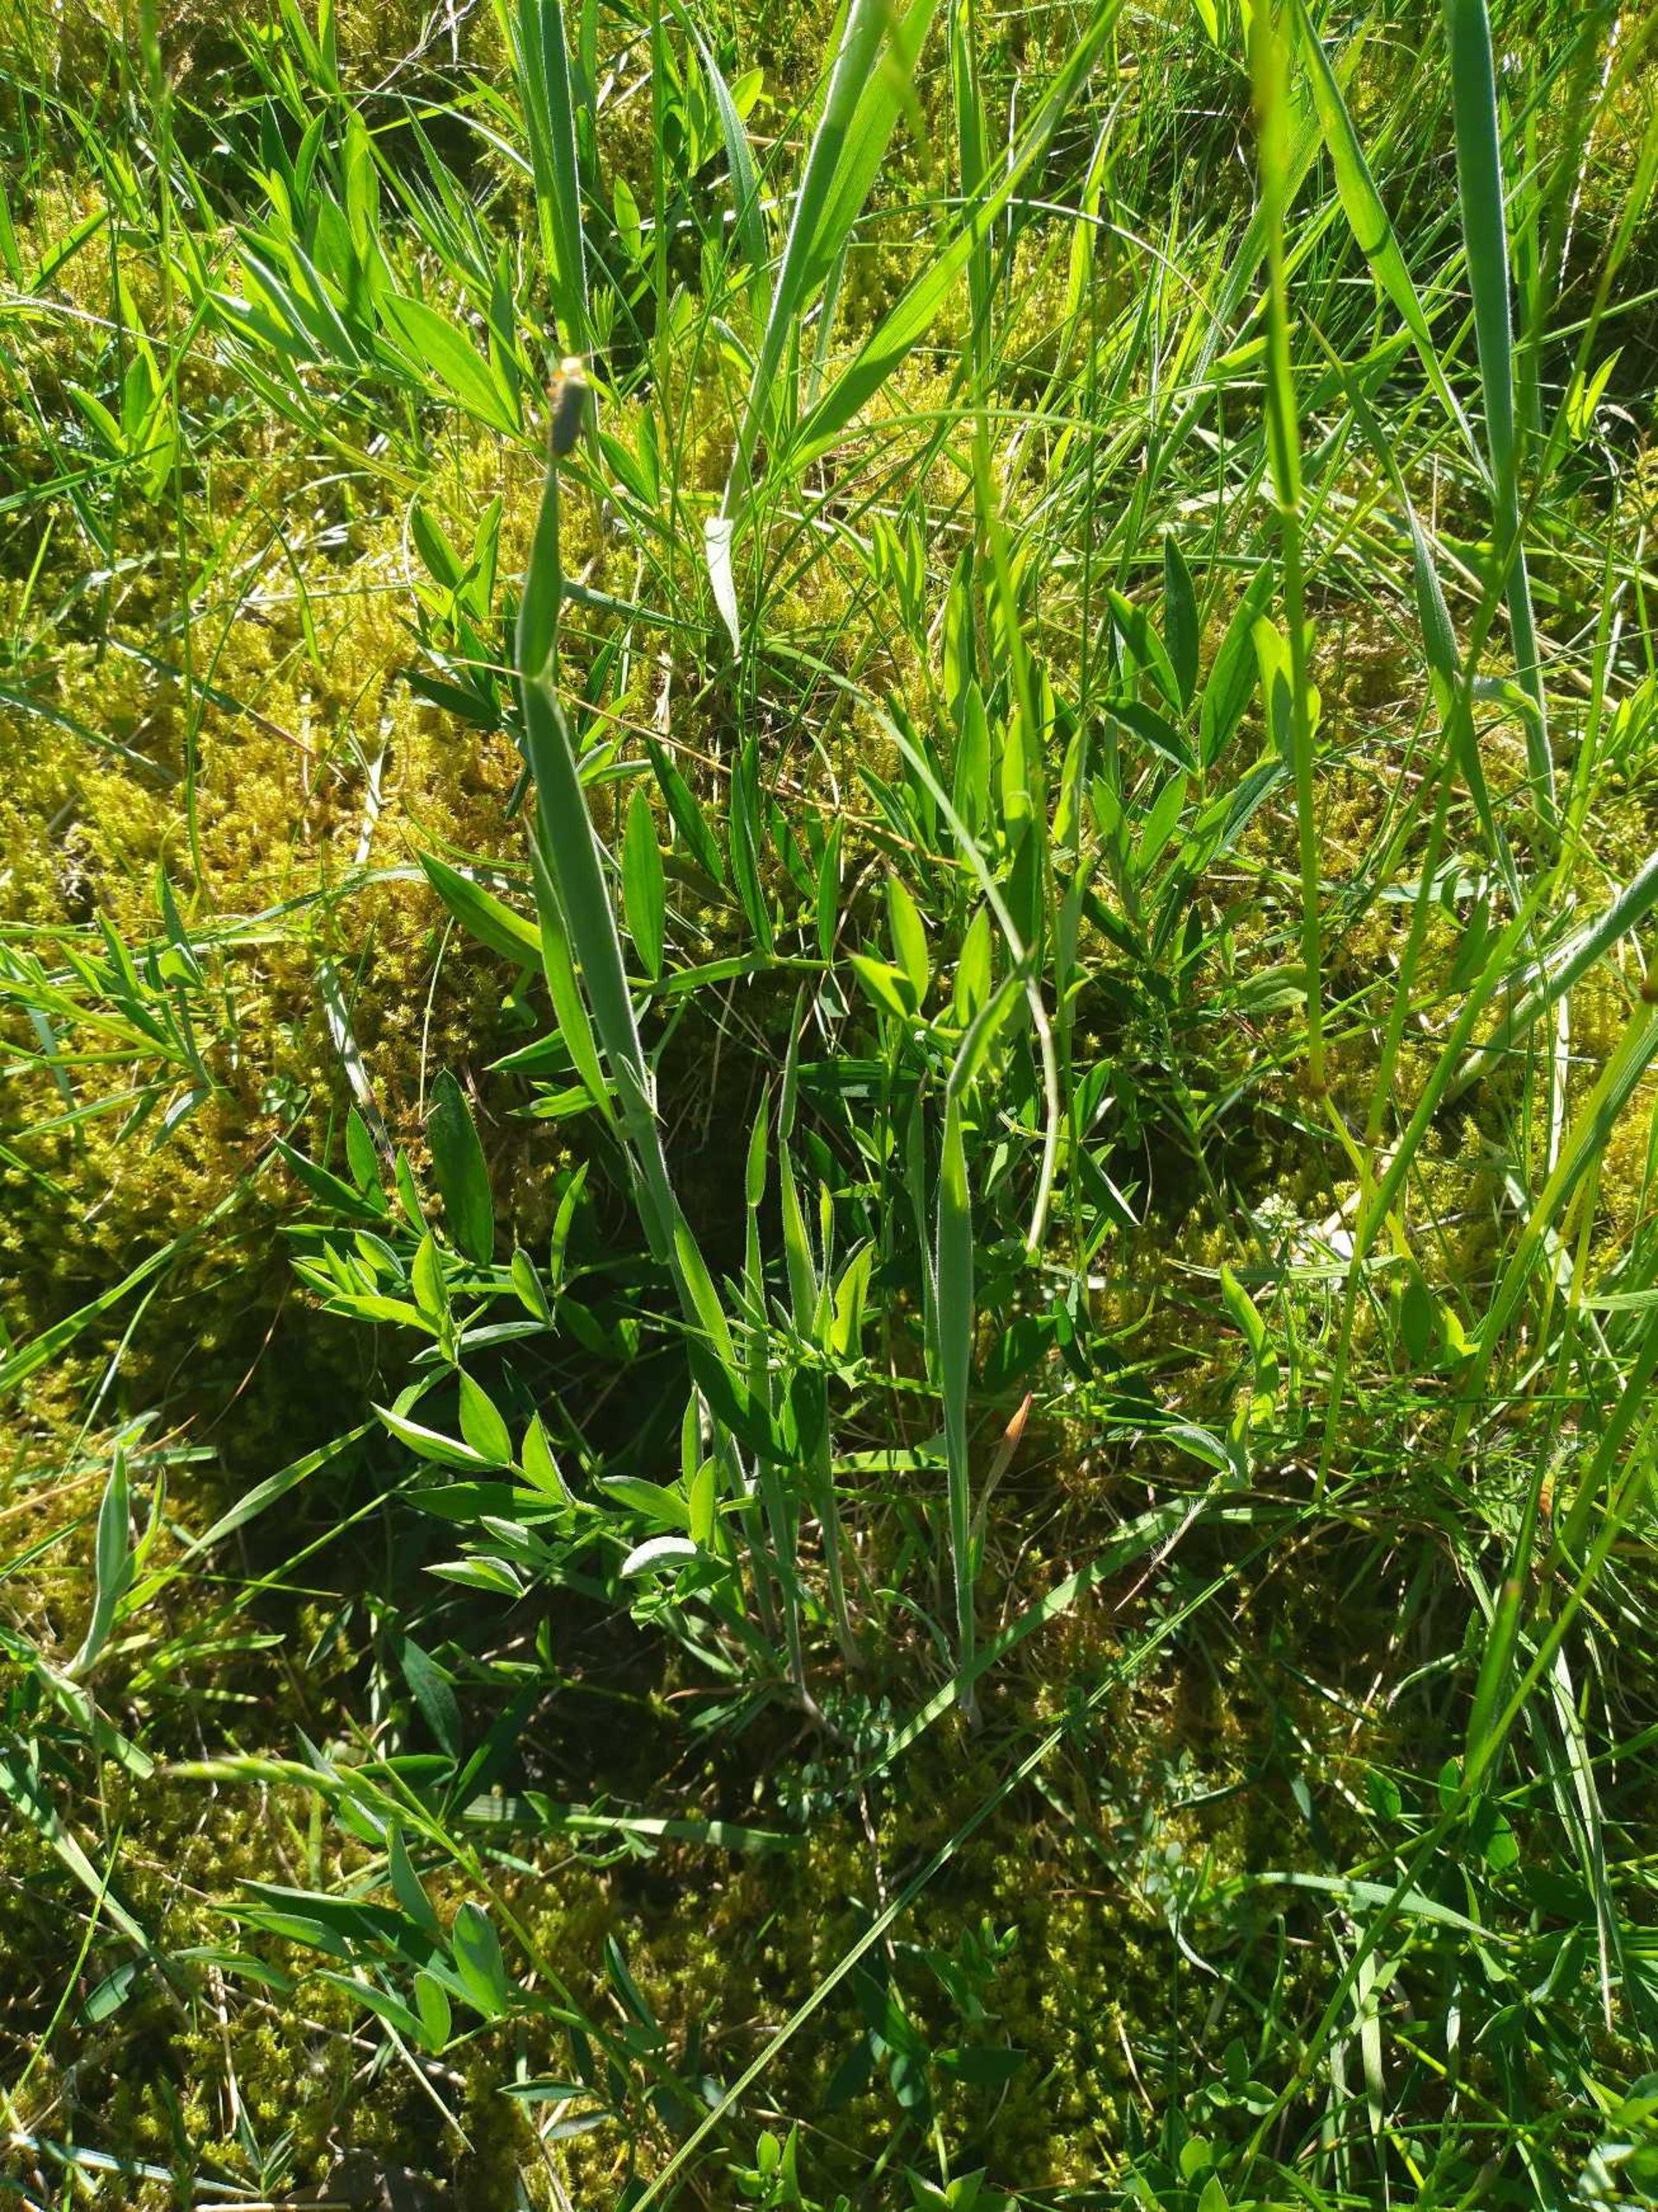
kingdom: Plantae
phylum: Tracheophyta
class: Magnoliopsida
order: Fabales
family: Fabaceae
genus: Lathyrus
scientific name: Lathyrus linifolius
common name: Krat-fladbælg
